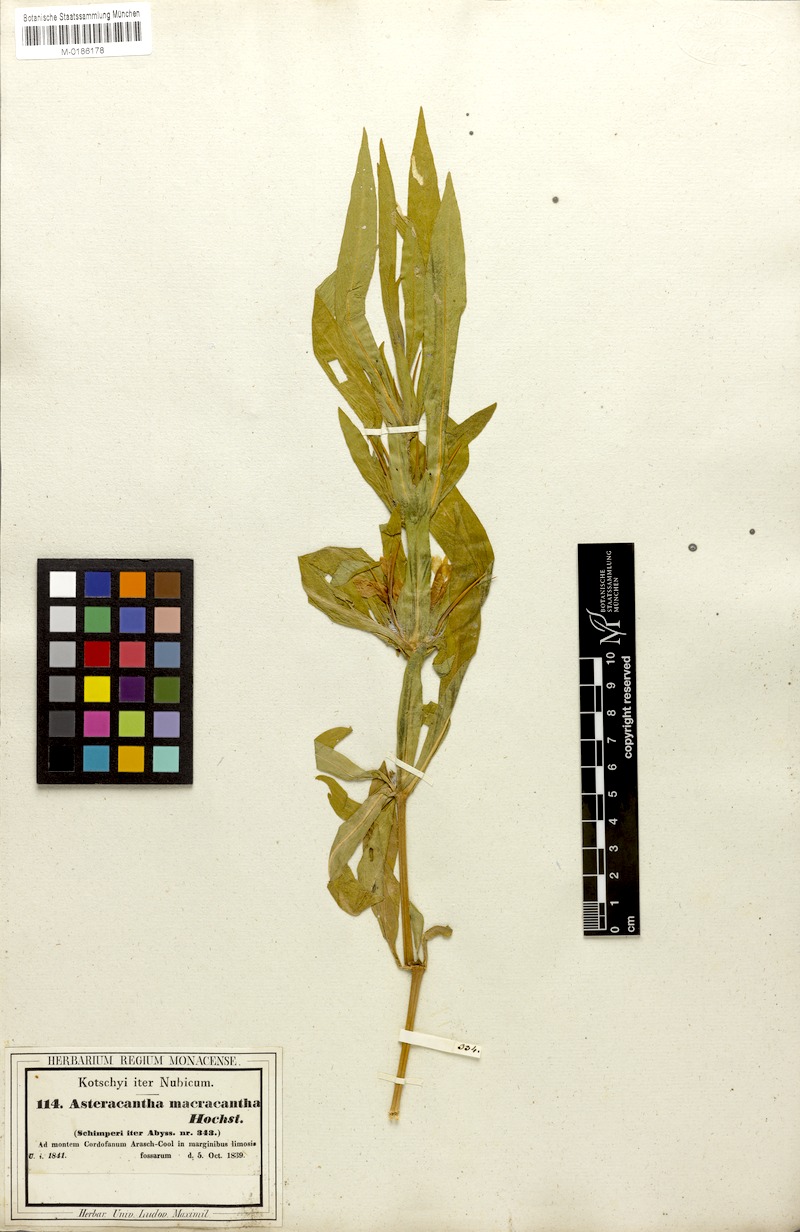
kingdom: Plantae
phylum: Tracheophyta
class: Magnoliopsida
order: Lamiales
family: Acanthaceae
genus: Hygrophila
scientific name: Hygrophila auriculata
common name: Hygrophila
